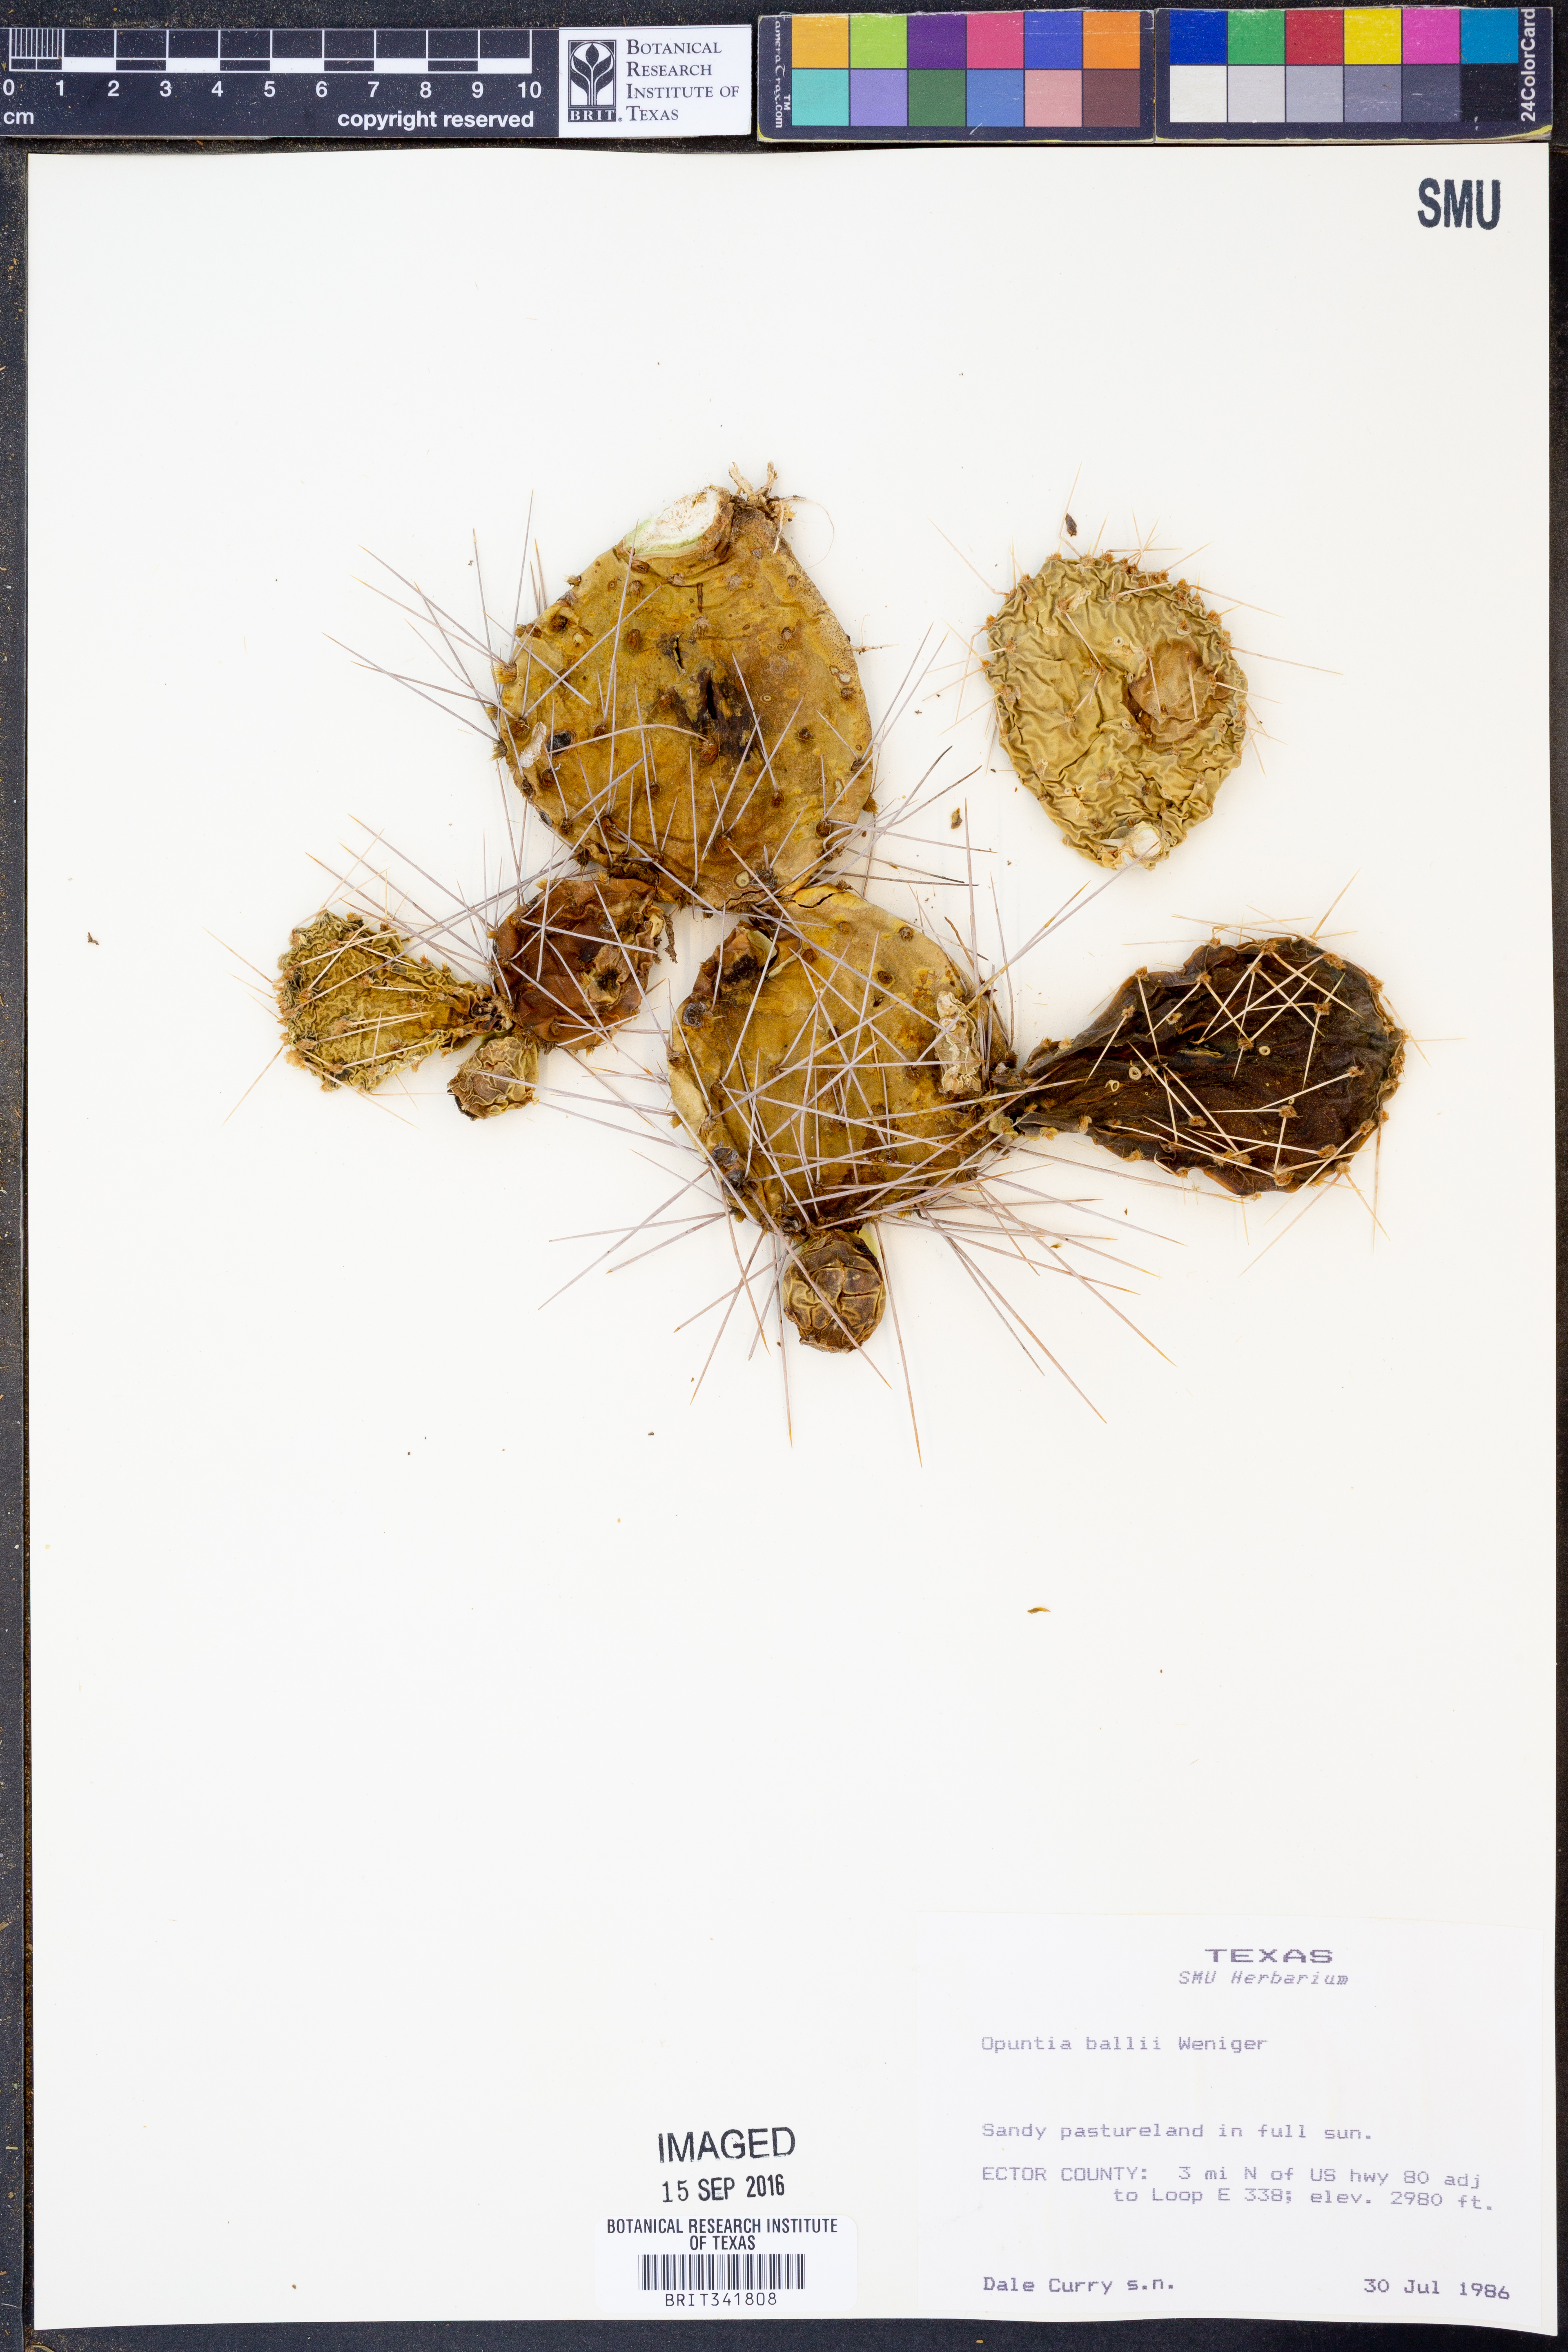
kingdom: Plantae
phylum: Tracheophyta
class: Magnoliopsida
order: Caryophyllales
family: Cactaceae
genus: Opuntia
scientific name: Opuntia pottsii
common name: Potts's prickly-pear
